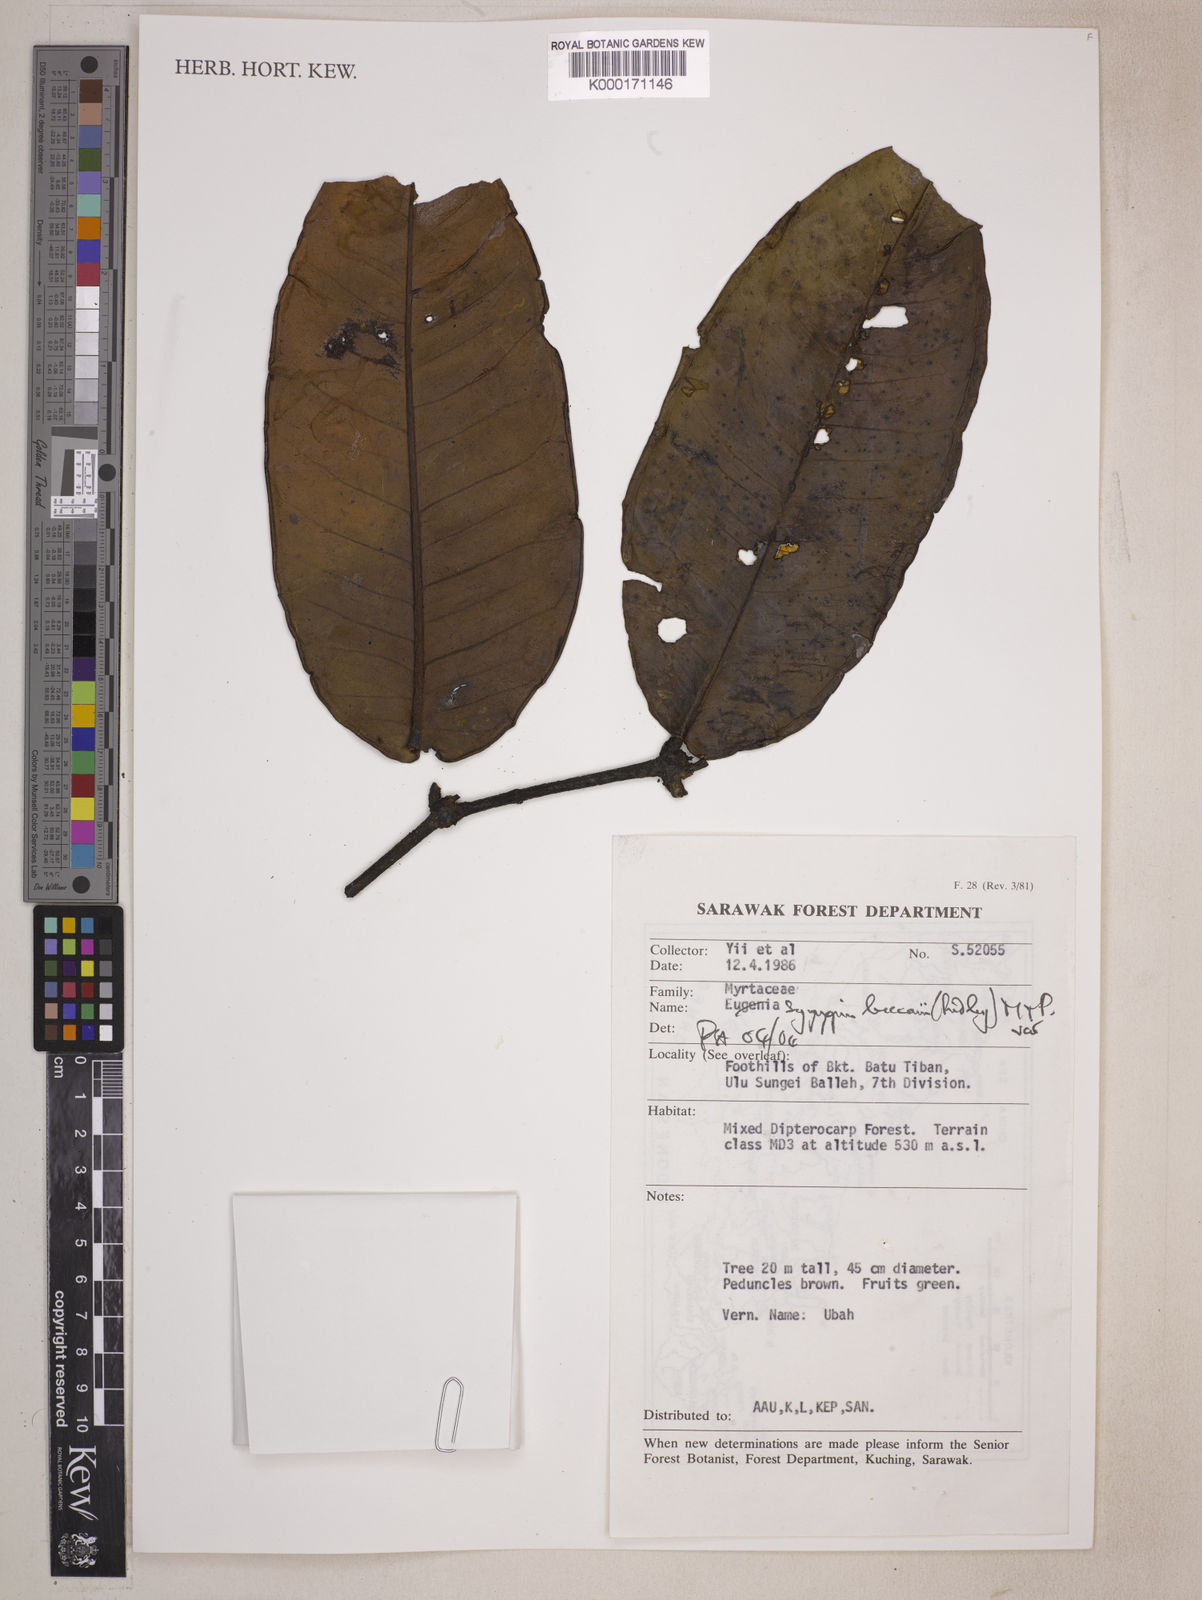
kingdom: Plantae
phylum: Tracheophyta
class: Magnoliopsida
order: Myrtales
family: Myrtaceae
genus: Syzygium
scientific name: Syzygium beccarii
